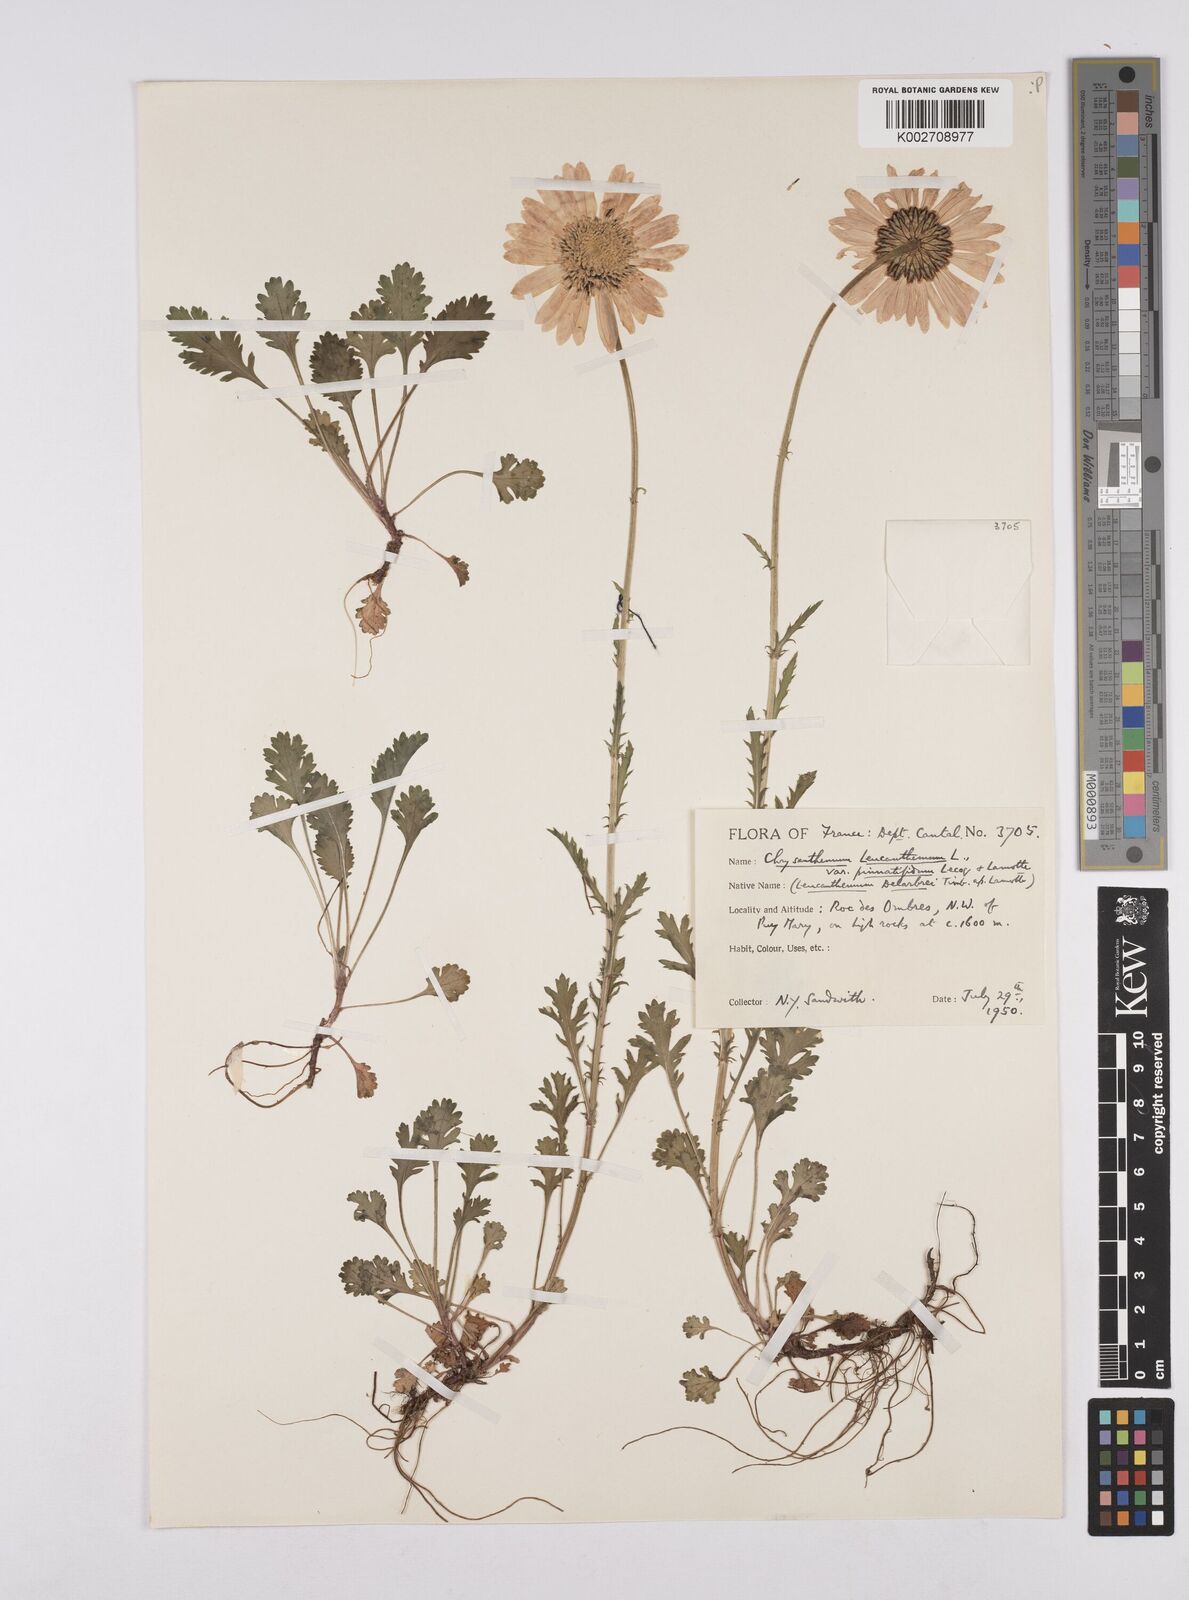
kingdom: Plantae
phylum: Tracheophyta
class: Magnoliopsida
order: Asterales
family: Asteraceae
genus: Leucanthemum
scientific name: Leucanthemum vulgare
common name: Oxeye daisy
